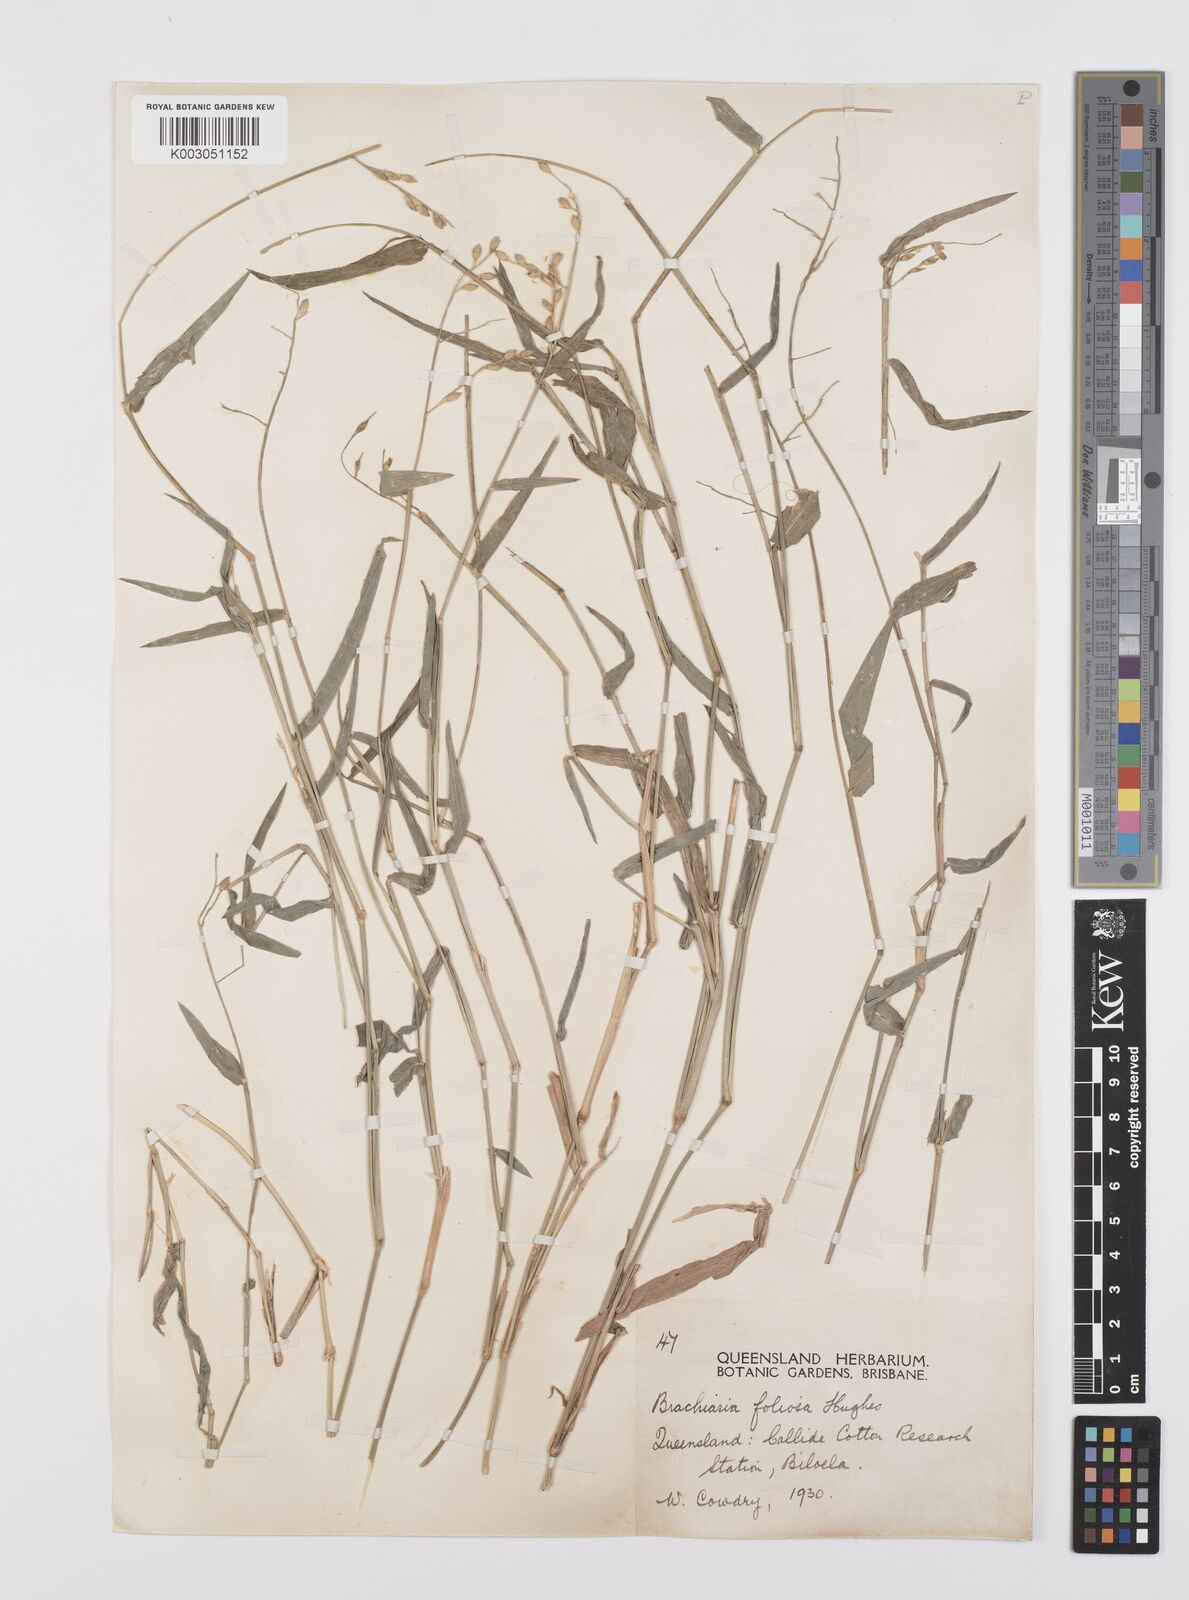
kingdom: Plantae
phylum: Tracheophyta
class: Liliopsida
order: Poales
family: Poaceae
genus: Urochloa
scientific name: Urochloa foliosa
